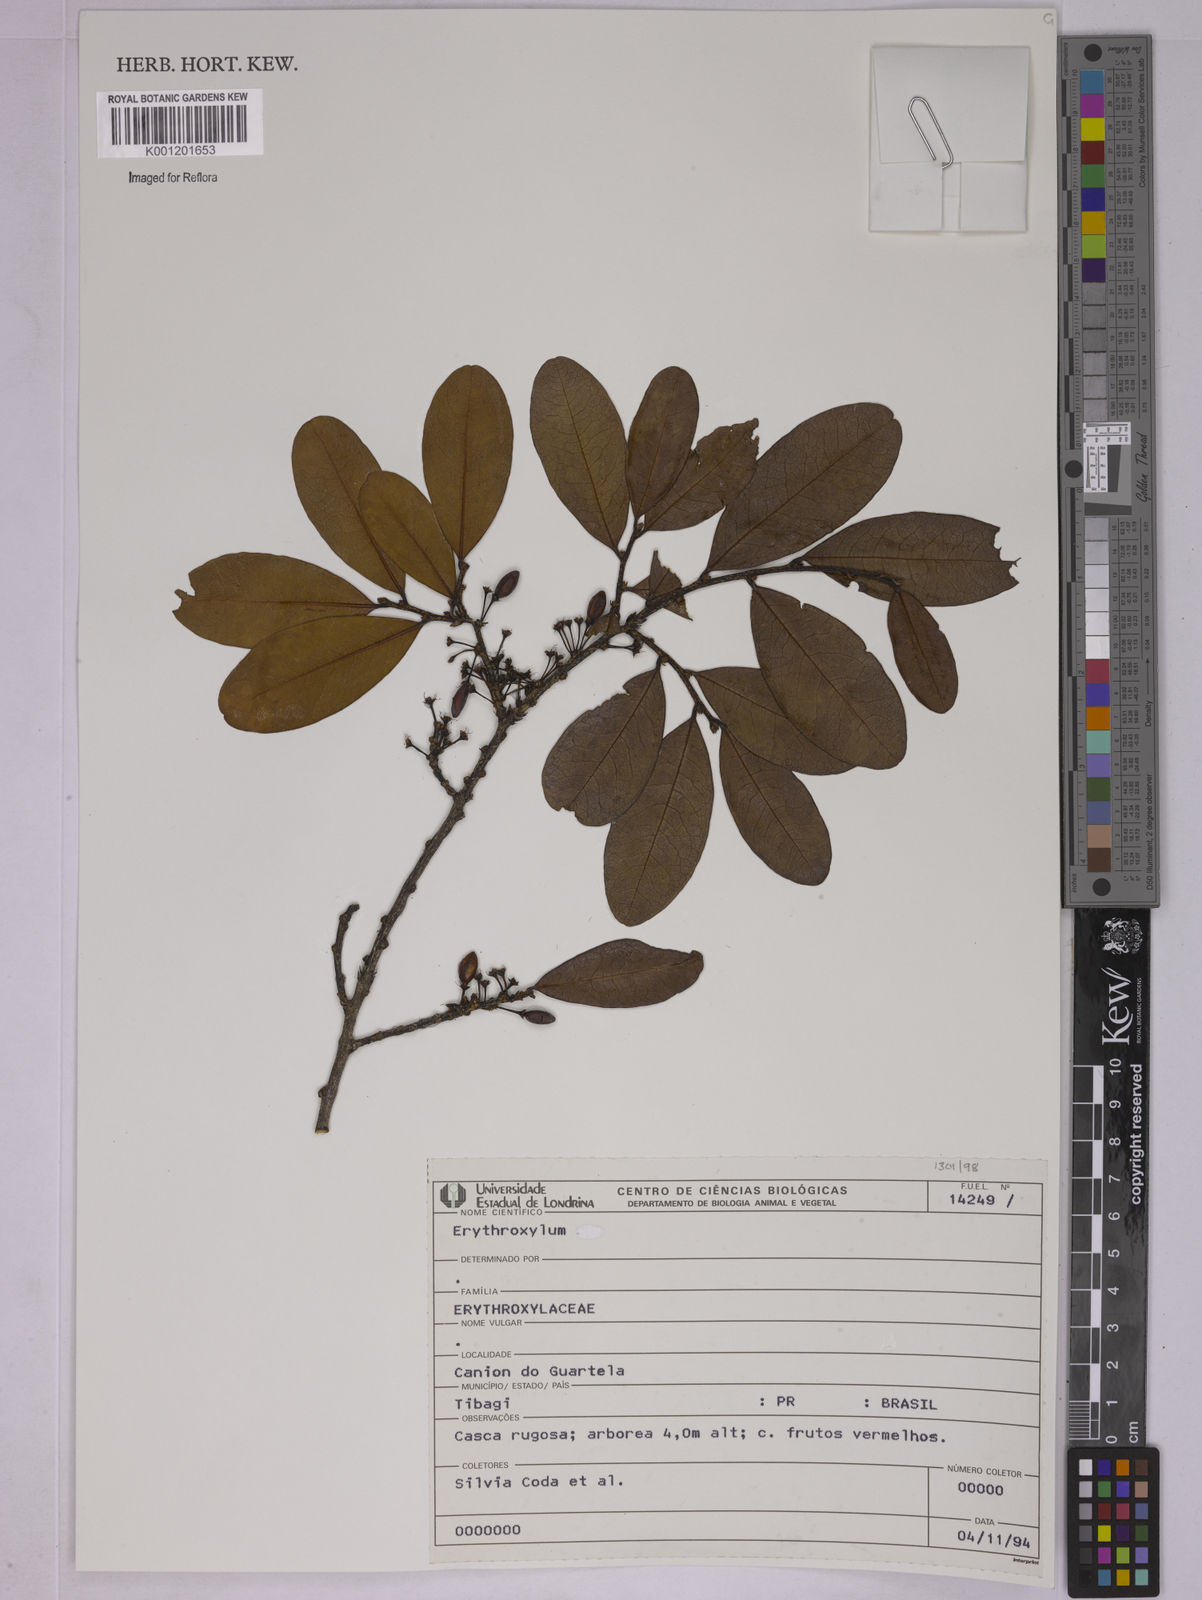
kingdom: Plantae
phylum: Tracheophyta
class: Magnoliopsida
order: Malpighiales
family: Erythroxylaceae
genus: Erythroxylum
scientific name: Erythroxylum
